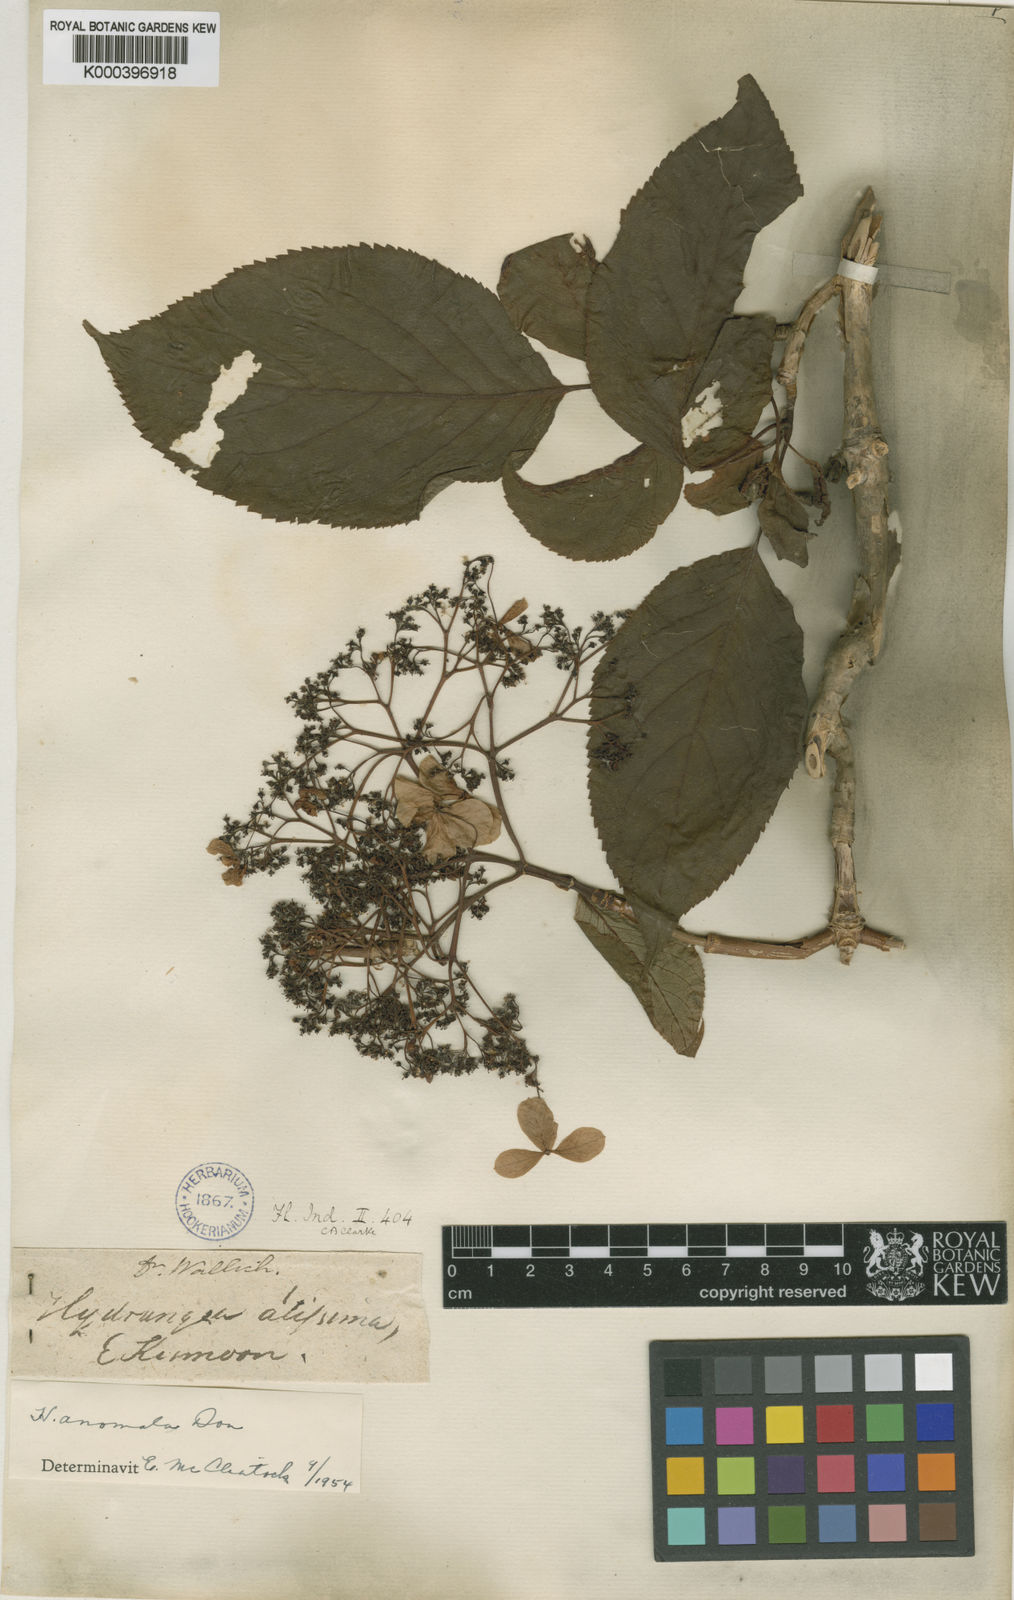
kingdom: Plantae
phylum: Tracheophyta
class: Magnoliopsida
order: Cornales
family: Hydrangeaceae
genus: Hydrangea
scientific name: Hydrangea anomala
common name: Japanese climbing-hydrangea
